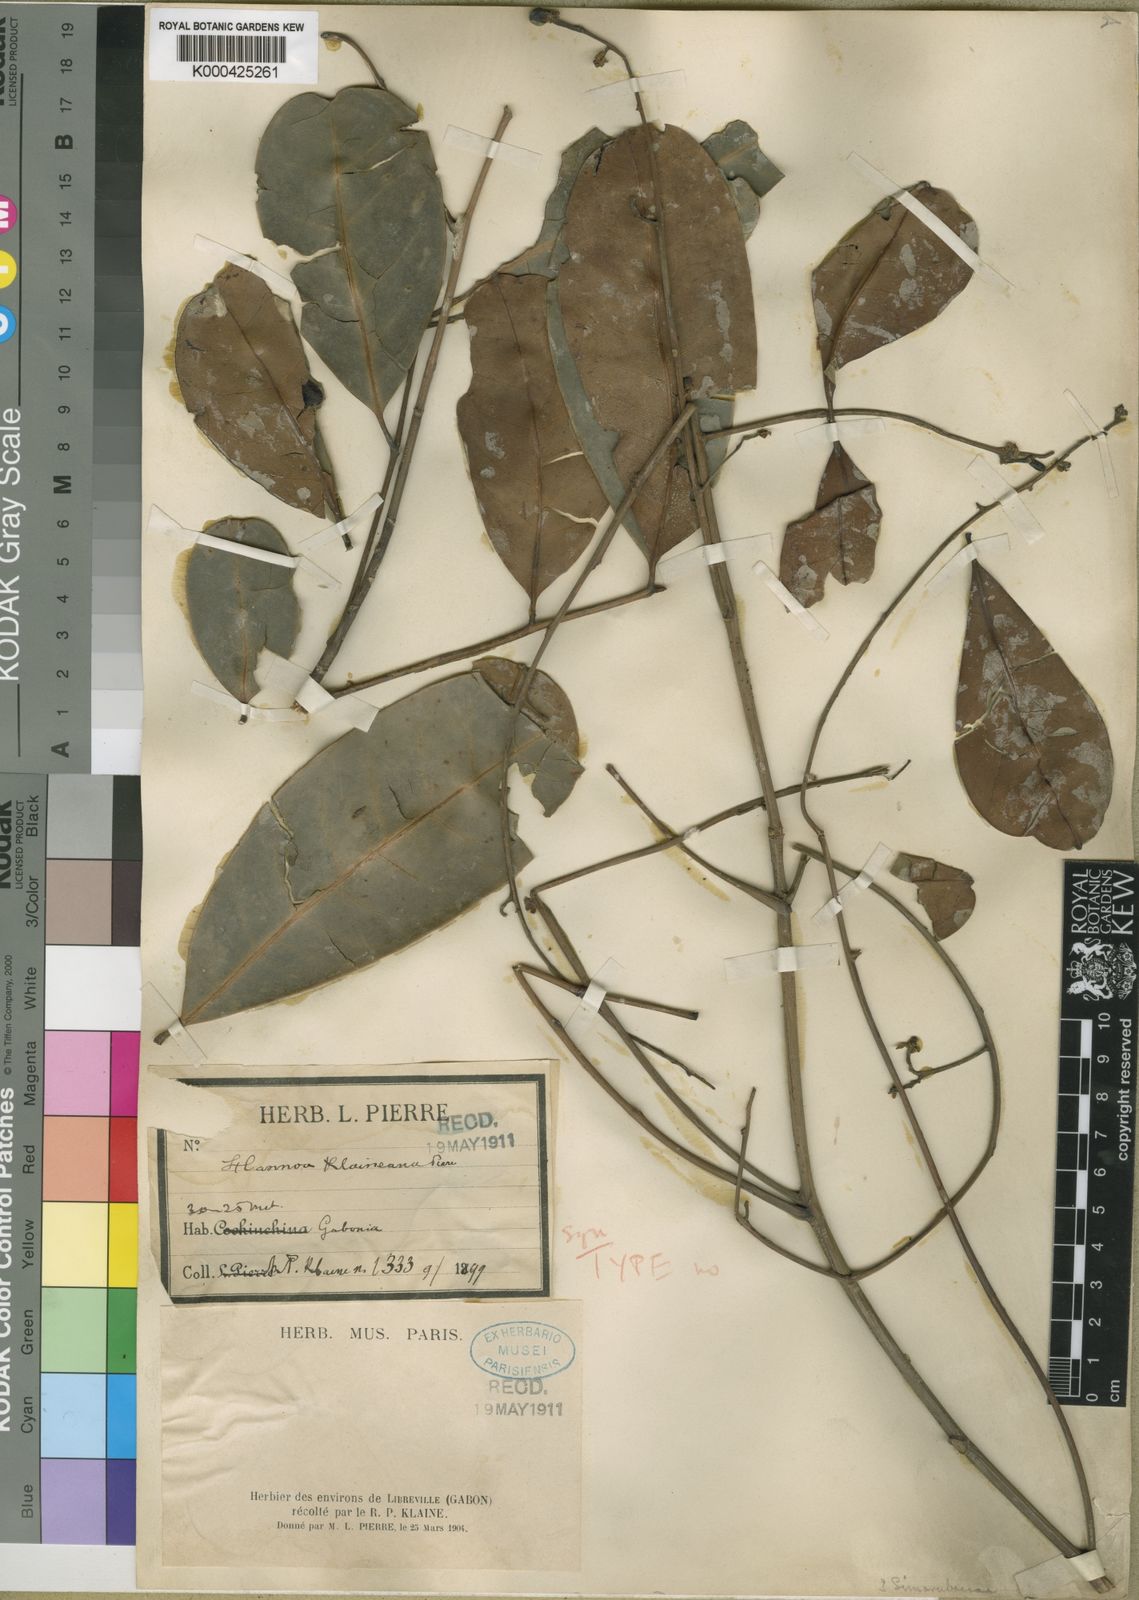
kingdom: Plantae
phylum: Tracheophyta
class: Magnoliopsida
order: Sapindales
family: Simaroubaceae
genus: Odyendyea
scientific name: Odyendyea klaineana
